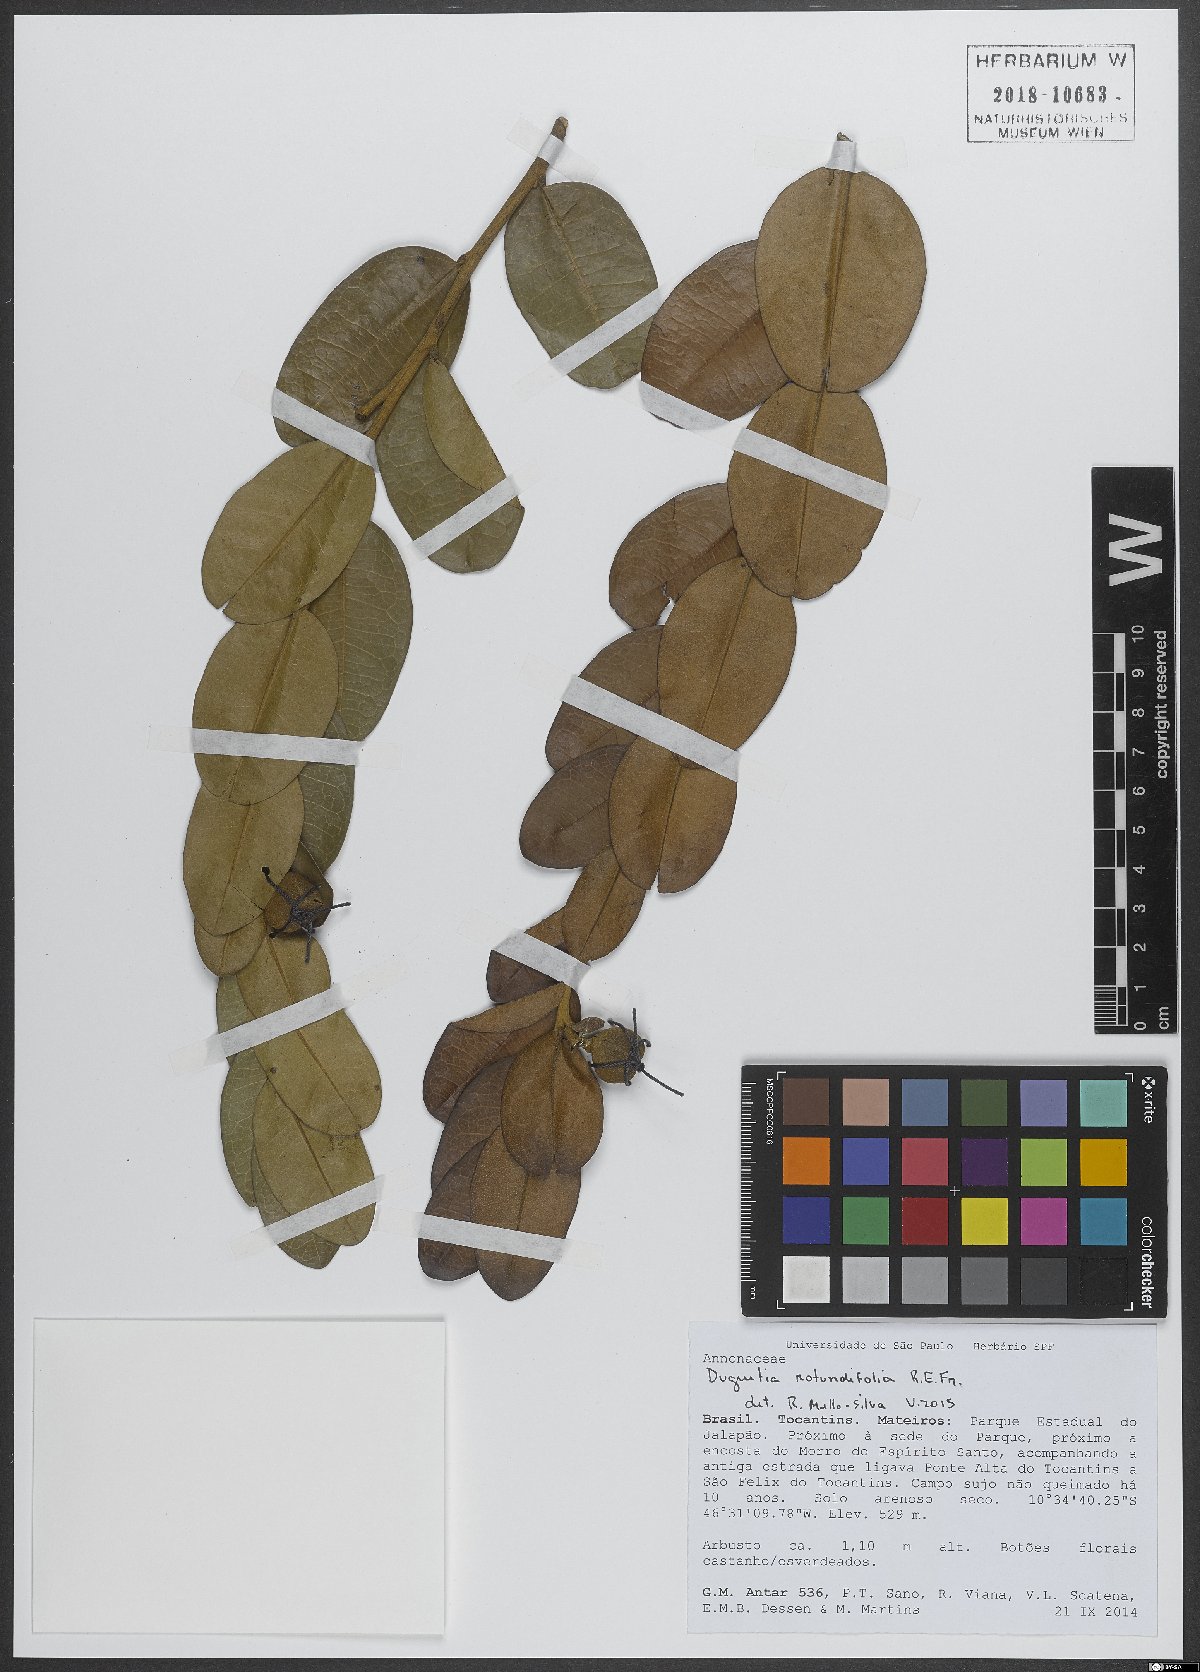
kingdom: Plantae
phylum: Tracheophyta
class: Magnoliopsida
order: Magnoliales
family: Annonaceae
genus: Duguetia
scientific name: Duguetia rotundifolia
